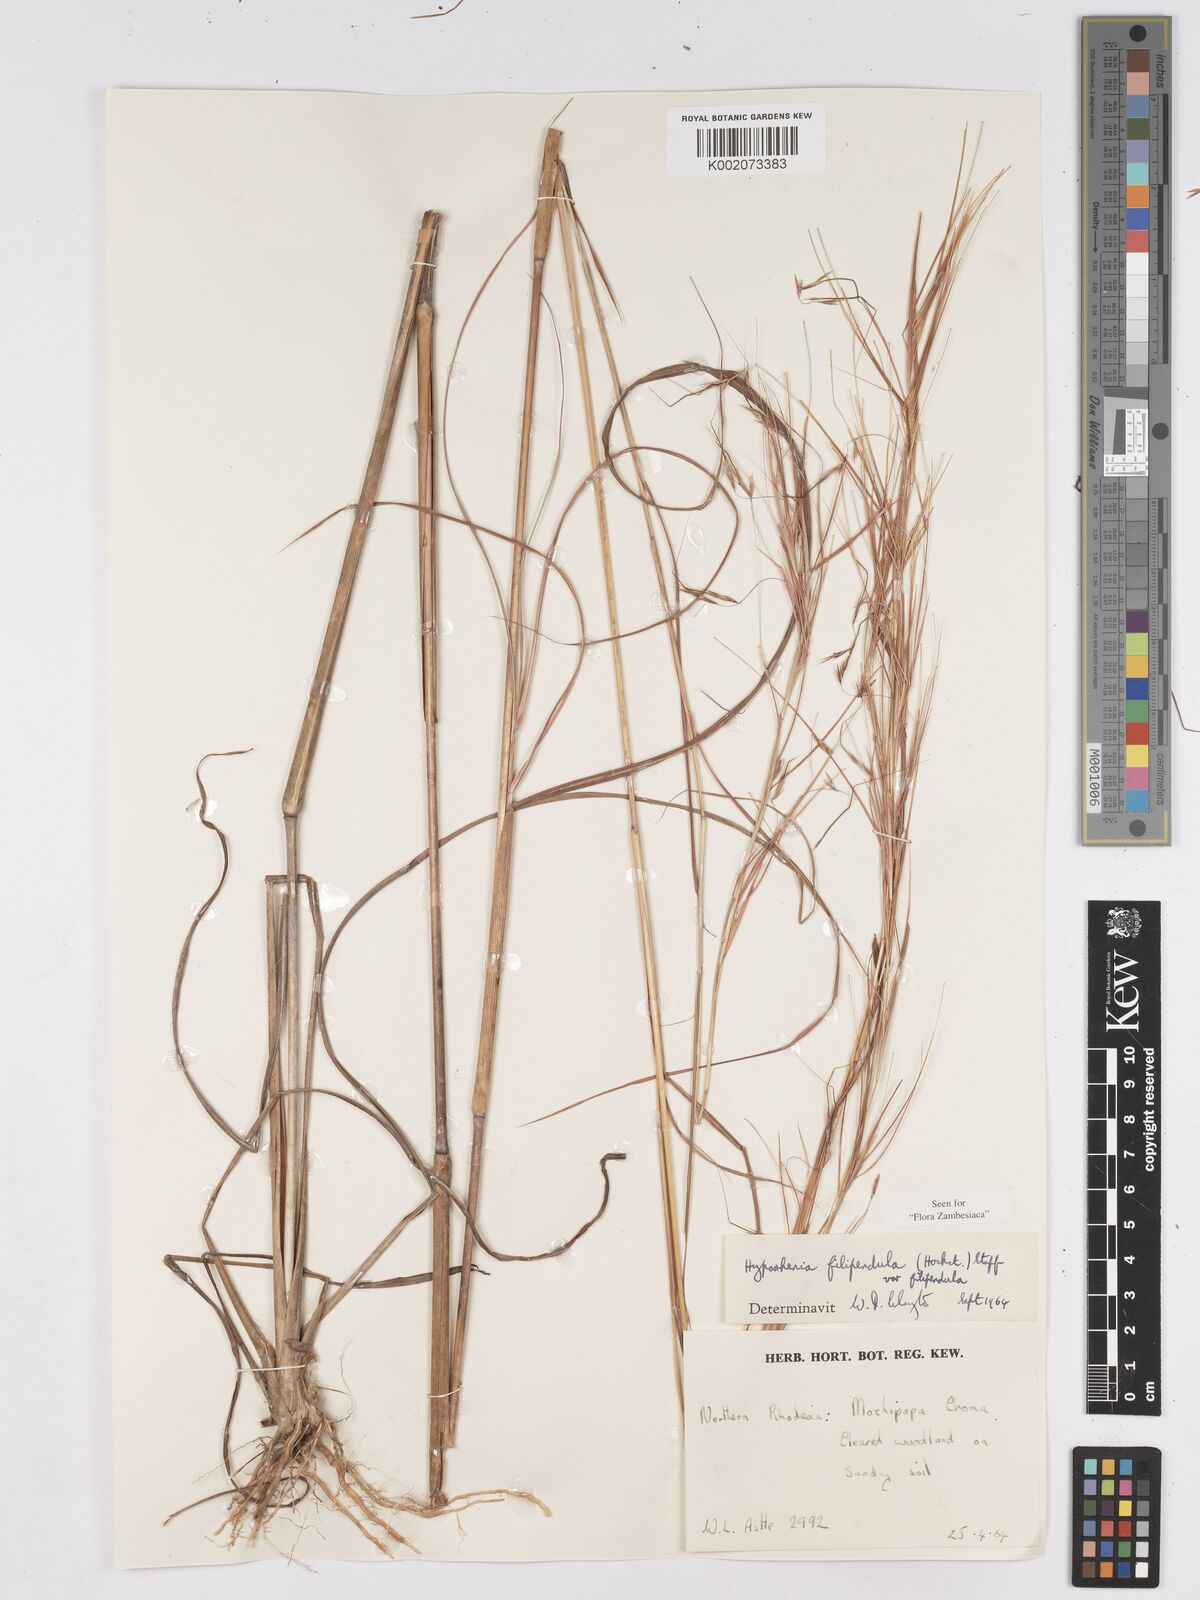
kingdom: Plantae
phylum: Tracheophyta
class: Liliopsida
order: Poales
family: Poaceae
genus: Hyparrhenia
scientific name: Hyparrhenia filipendula
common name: Tambookie grass
